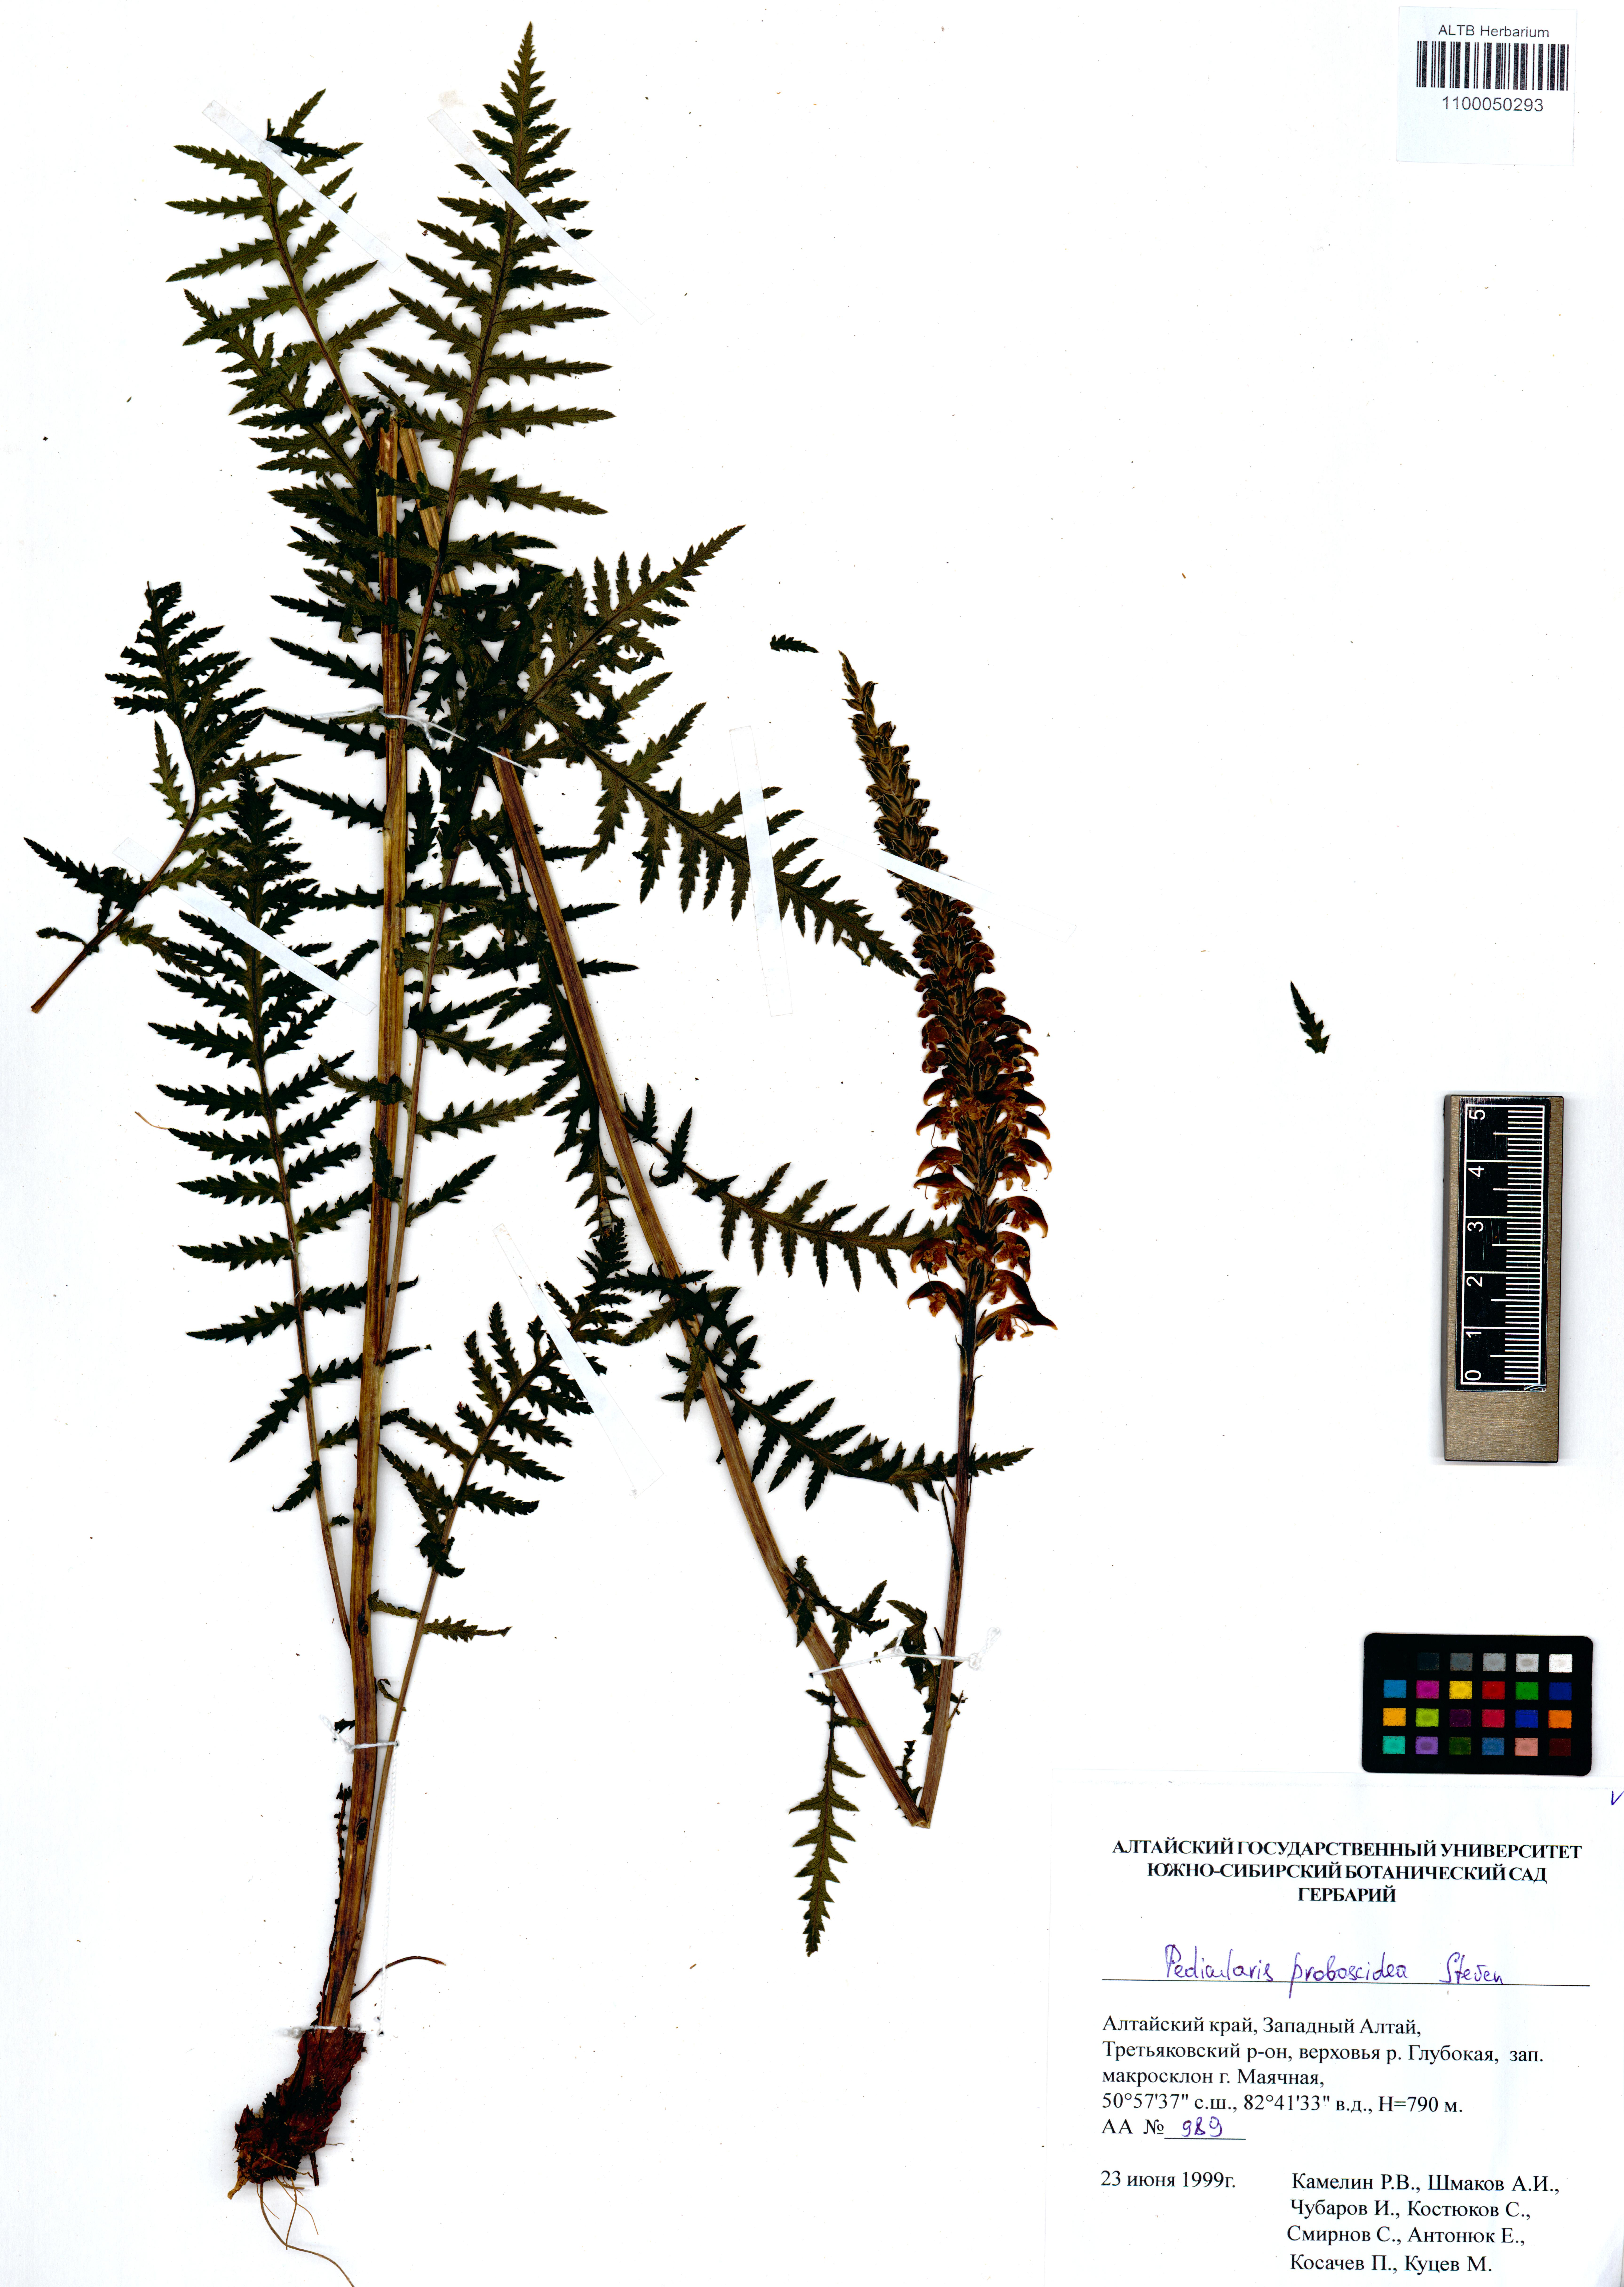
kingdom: Plantae
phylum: Tracheophyta
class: Magnoliopsida
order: Lamiales
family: Orobanchaceae
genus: Pedicularis
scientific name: Pedicularis proboscidea
